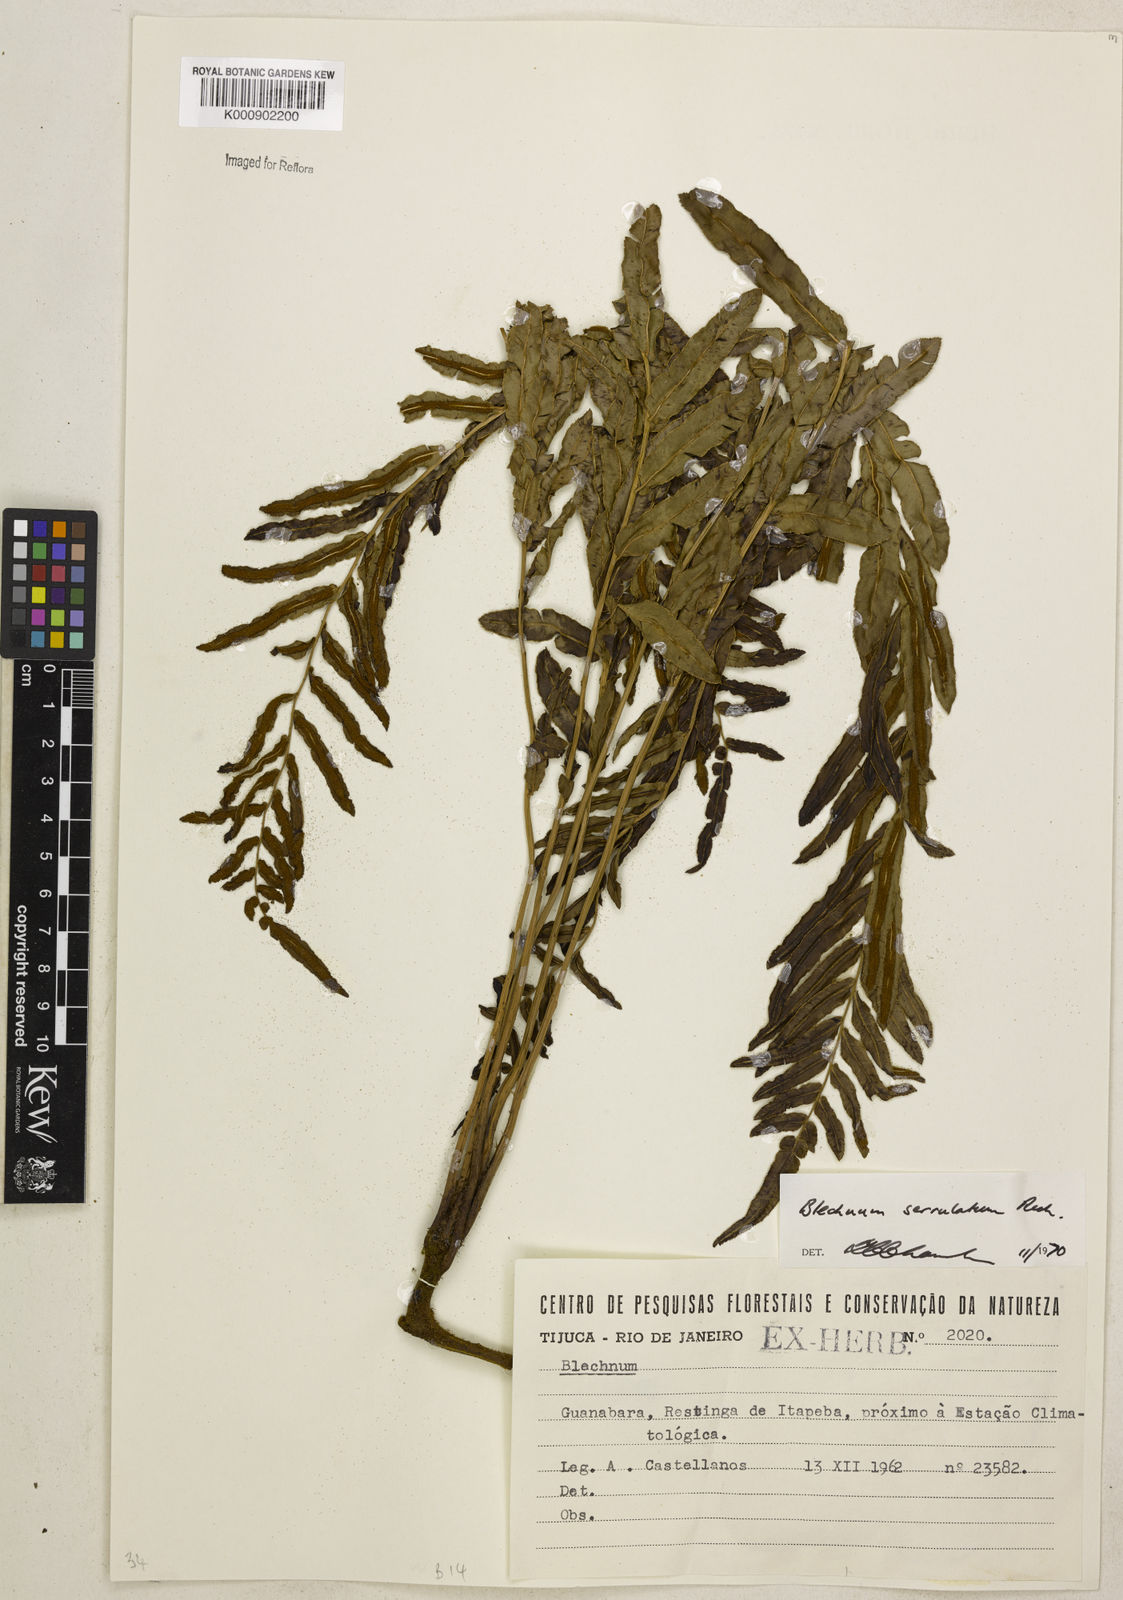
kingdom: Plantae
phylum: Tracheophyta
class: Polypodiopsida
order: Polypodiales
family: Blechnaceae
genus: Telmatoblechnum
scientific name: Telmatoblechnum serrulatum
